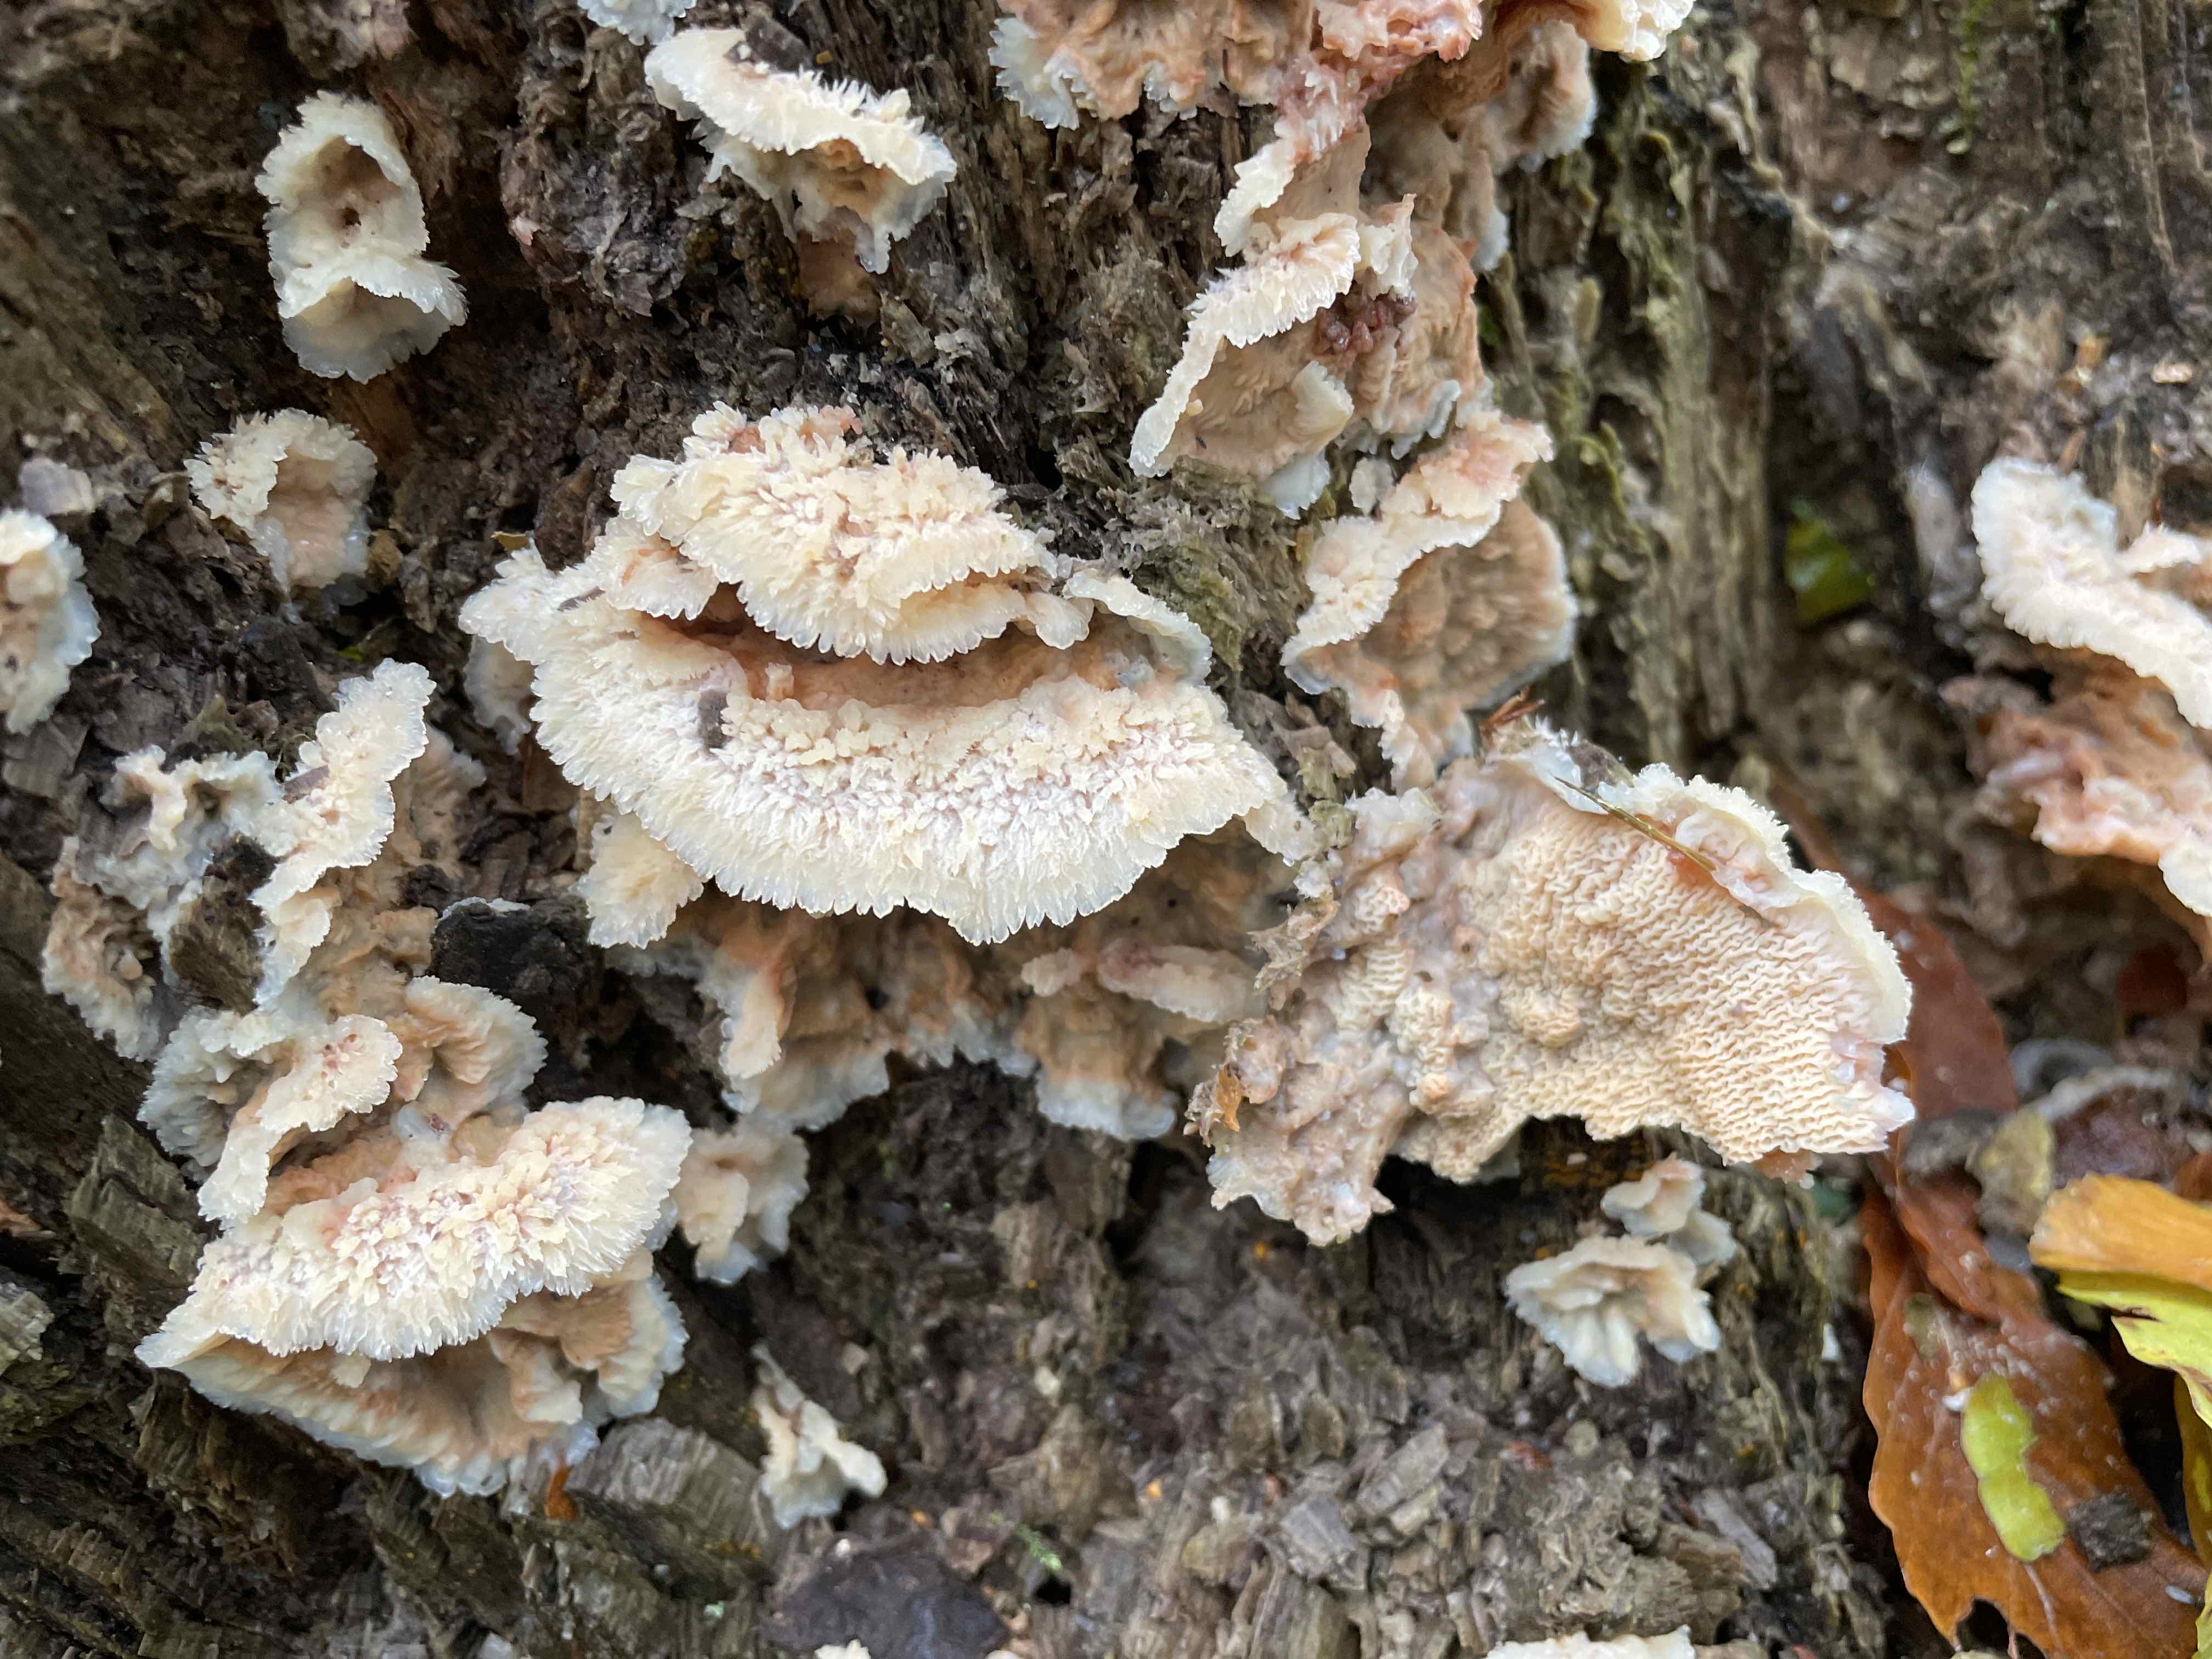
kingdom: Fungi
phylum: Basidiomycota
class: Agaricomycetes
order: Polyporales
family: Meruliaceae
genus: Phlebia
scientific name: Phlebia tremellosa
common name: bævrende åresvamp
